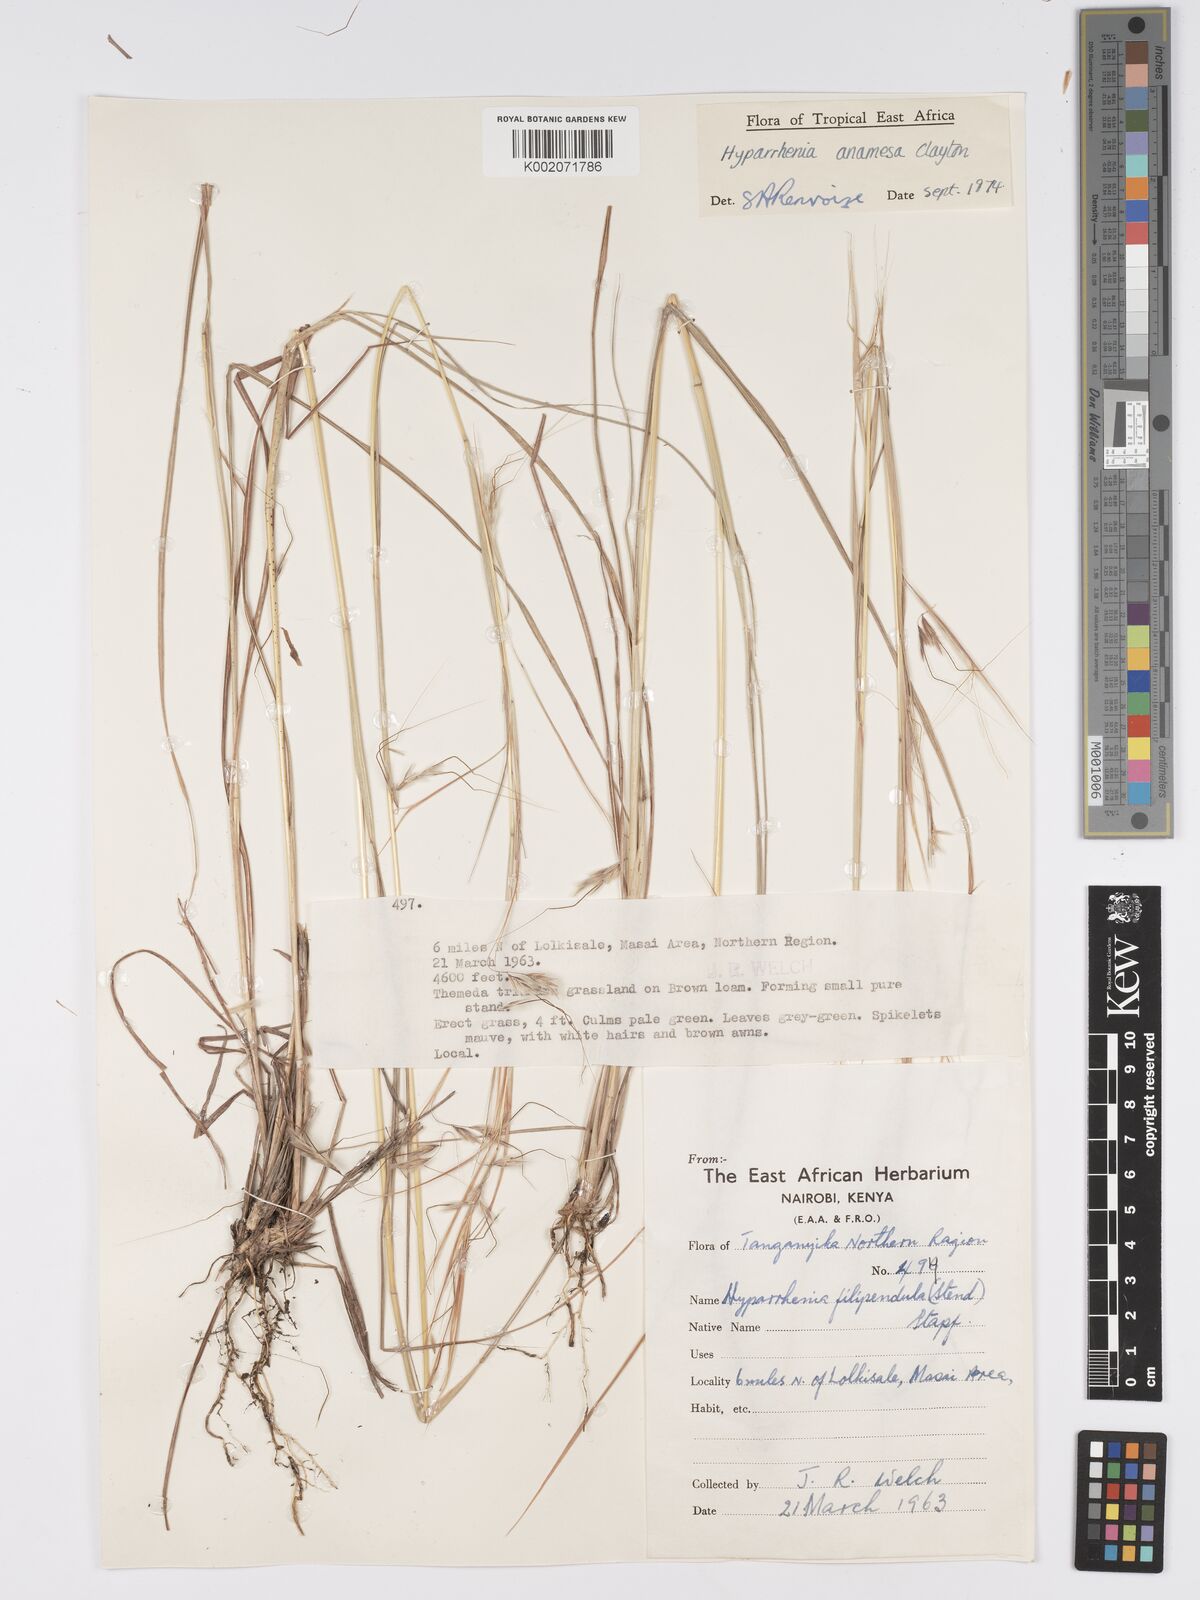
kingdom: Plantae
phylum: Tracheophyta
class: Liliopsida
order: Poales
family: Poaceae
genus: Hyparrhenia
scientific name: Hyparrhenia anamesa
